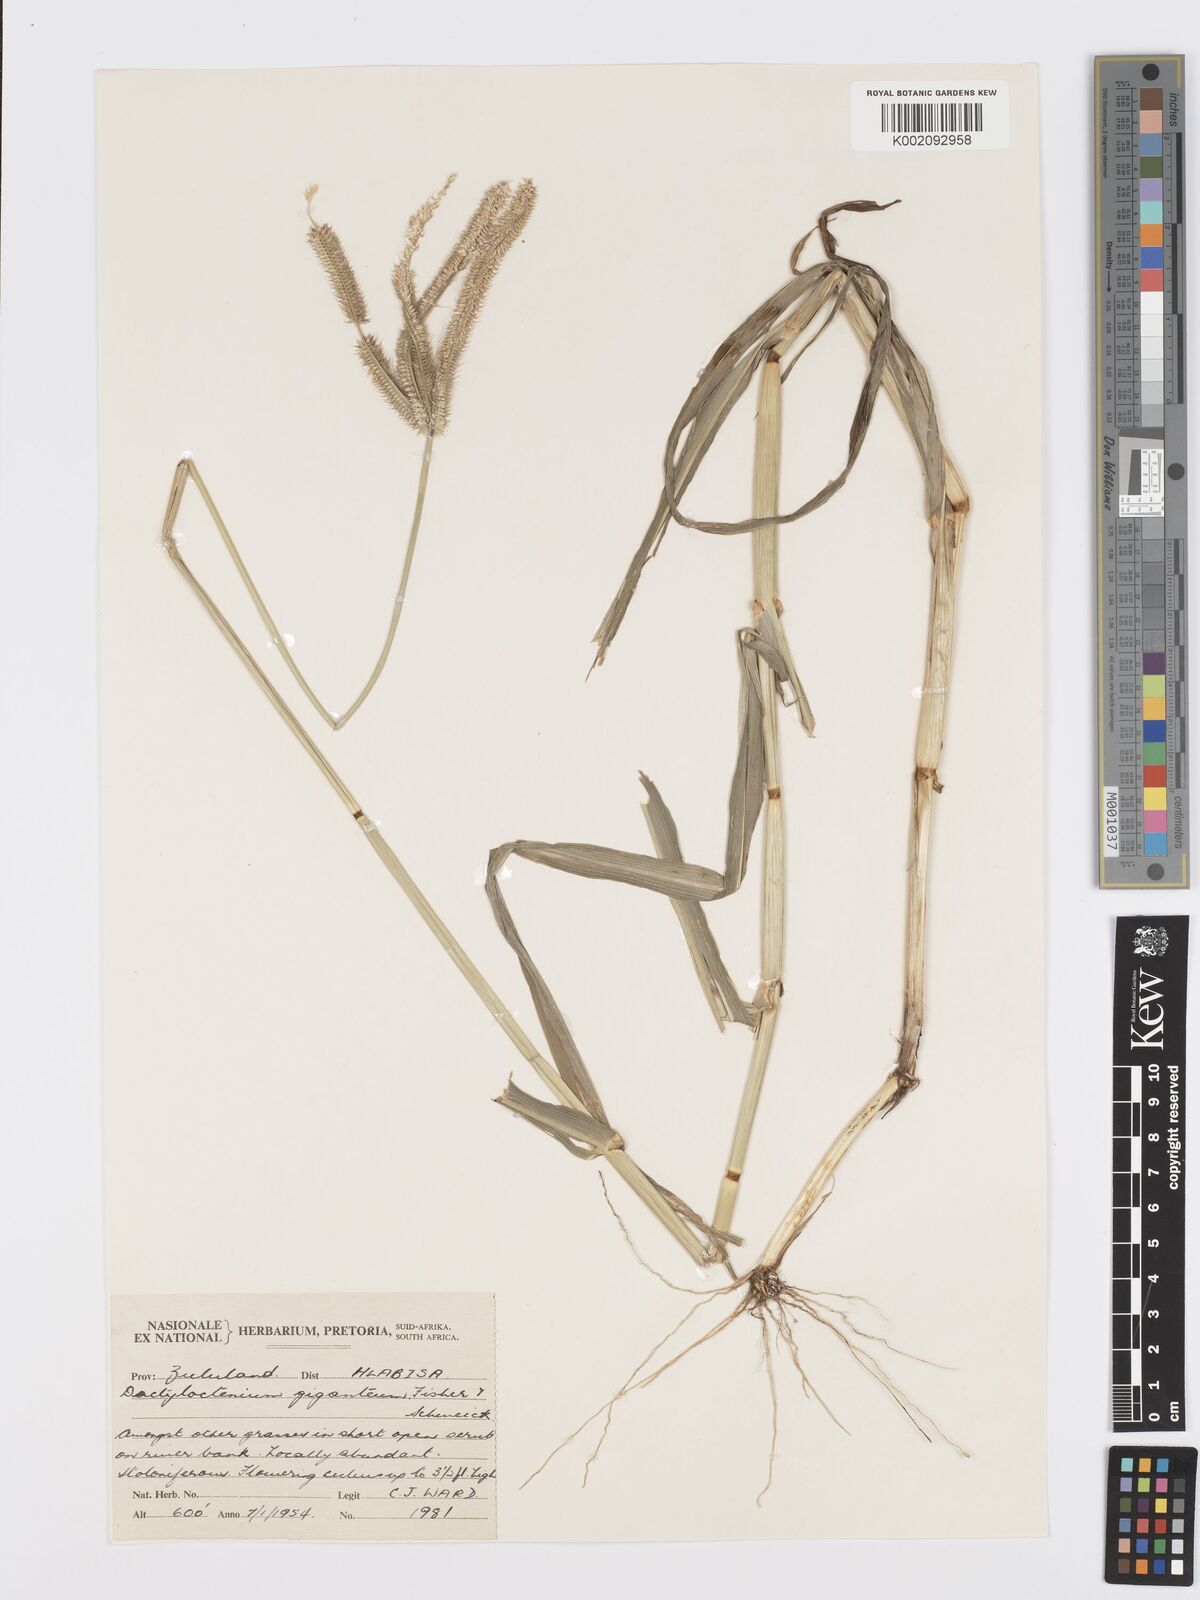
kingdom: Plantae
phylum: Tracheophyta
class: Liliopsida
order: Poales
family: Poaceae
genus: Dactyloctenium
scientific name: Dactyloctenium giganteum
